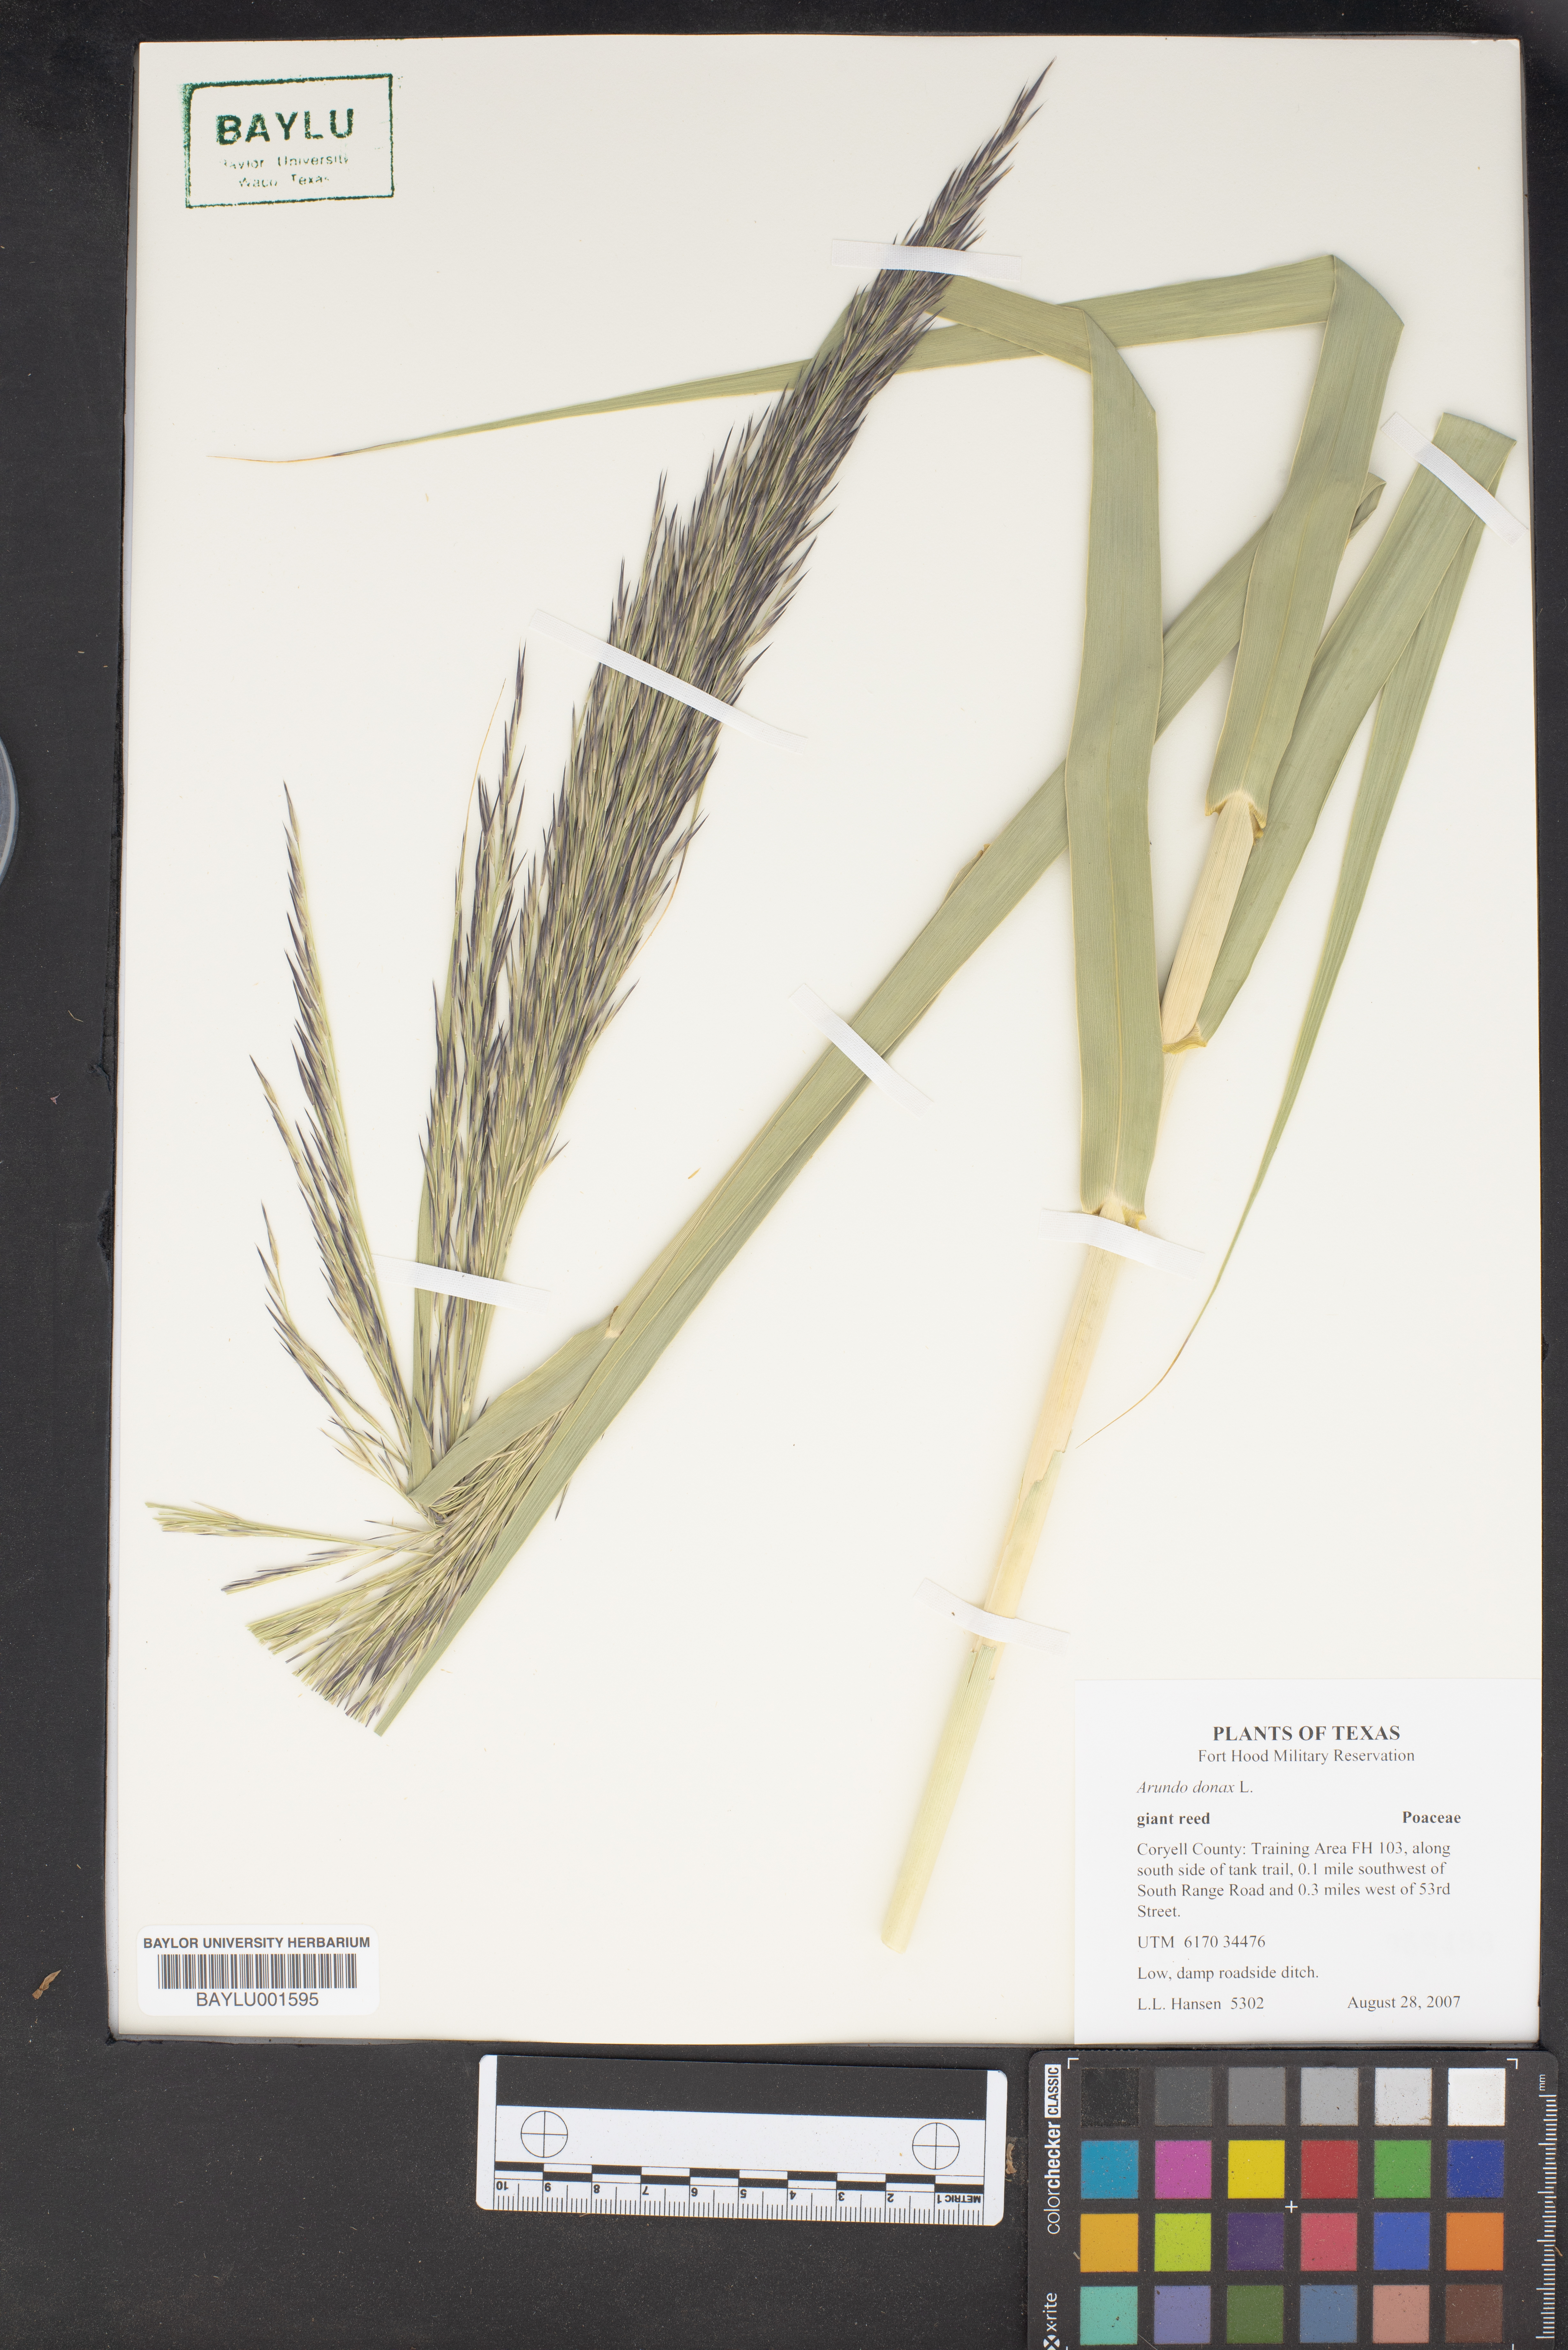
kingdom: Plantae
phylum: Tracheophyta
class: Liliopsida
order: Poales
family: Poaceae
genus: Arundo
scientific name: Arundo donax
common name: Giant reed
